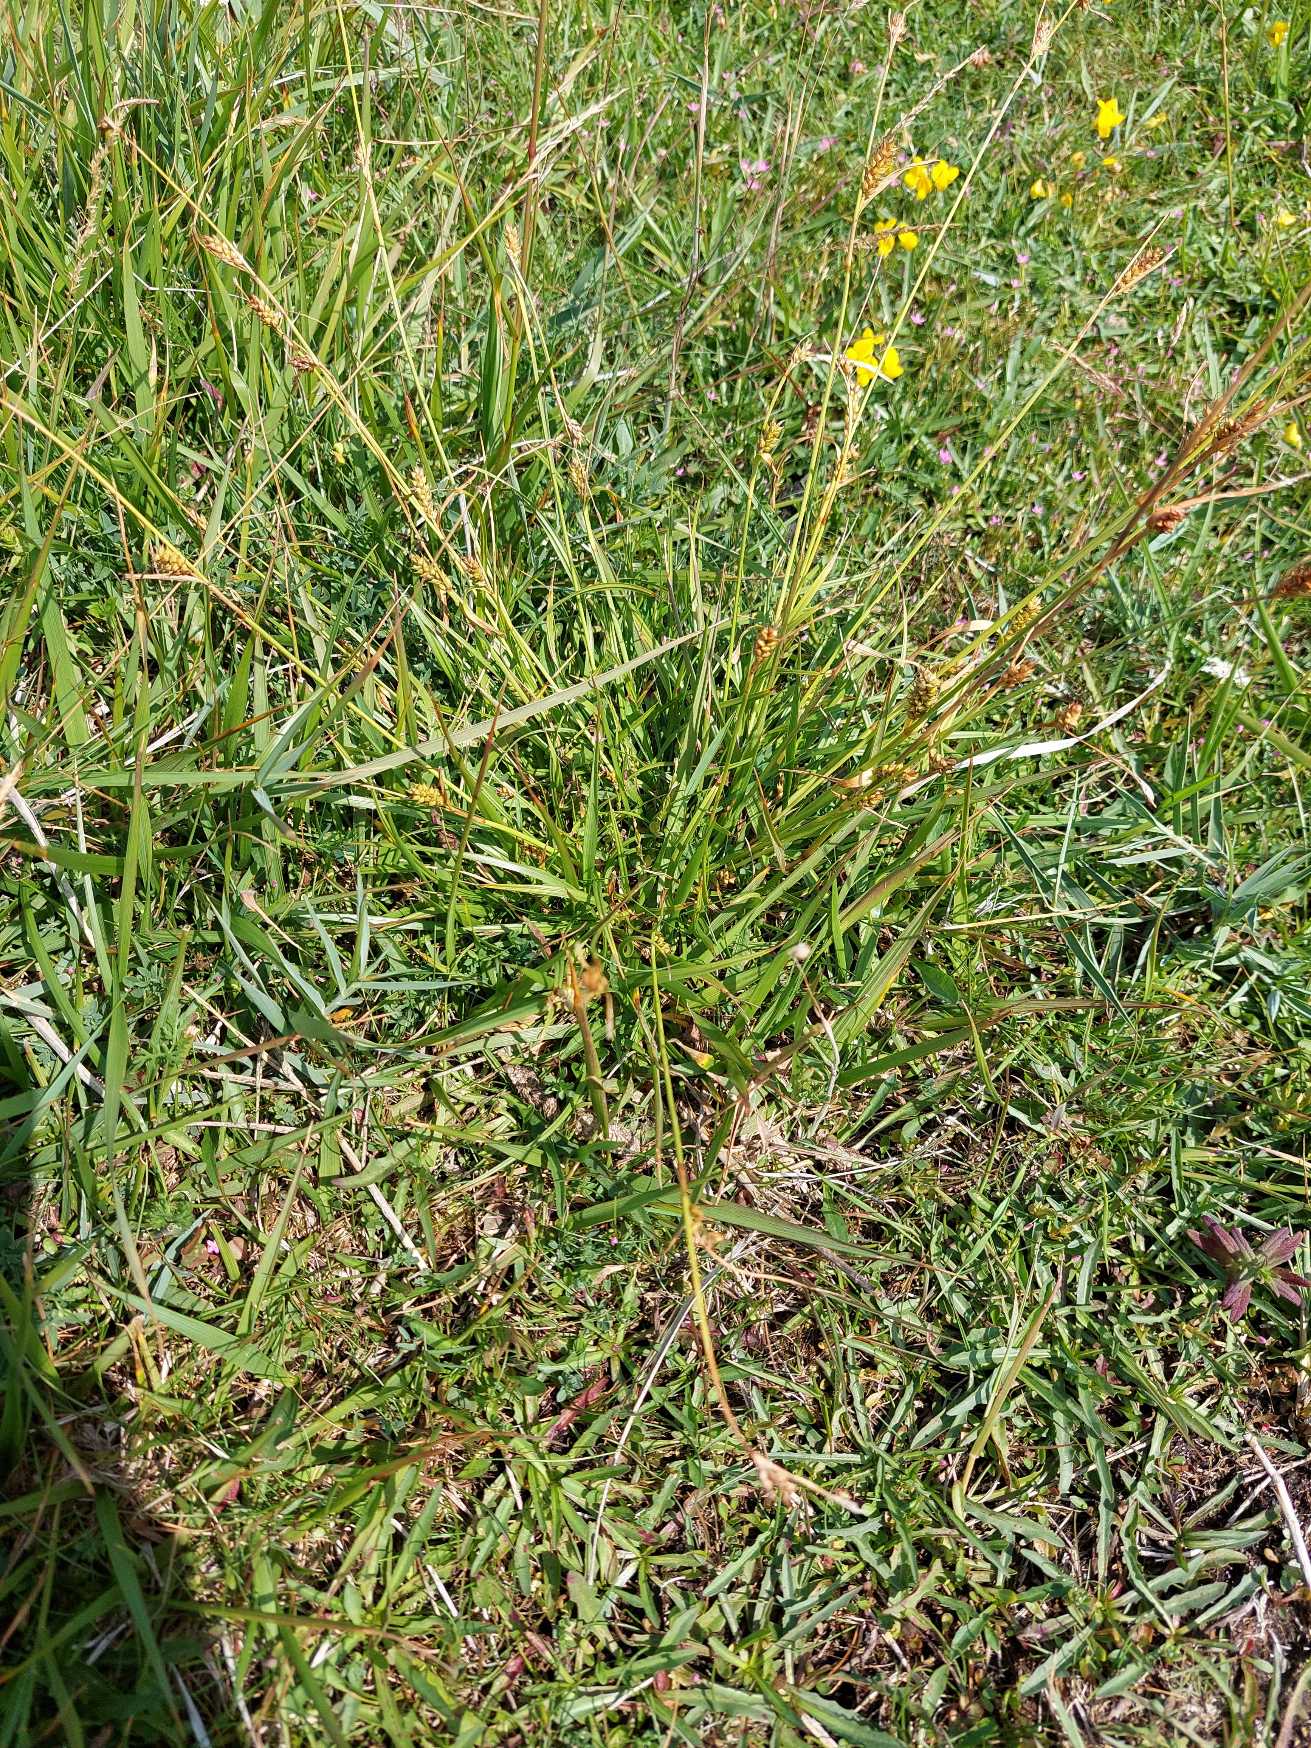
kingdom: Plantae
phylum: Tracheophyta
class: Liliopsida
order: Poales
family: Cyperaceae
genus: Carex
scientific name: Carex distans
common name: Fjernakset star
